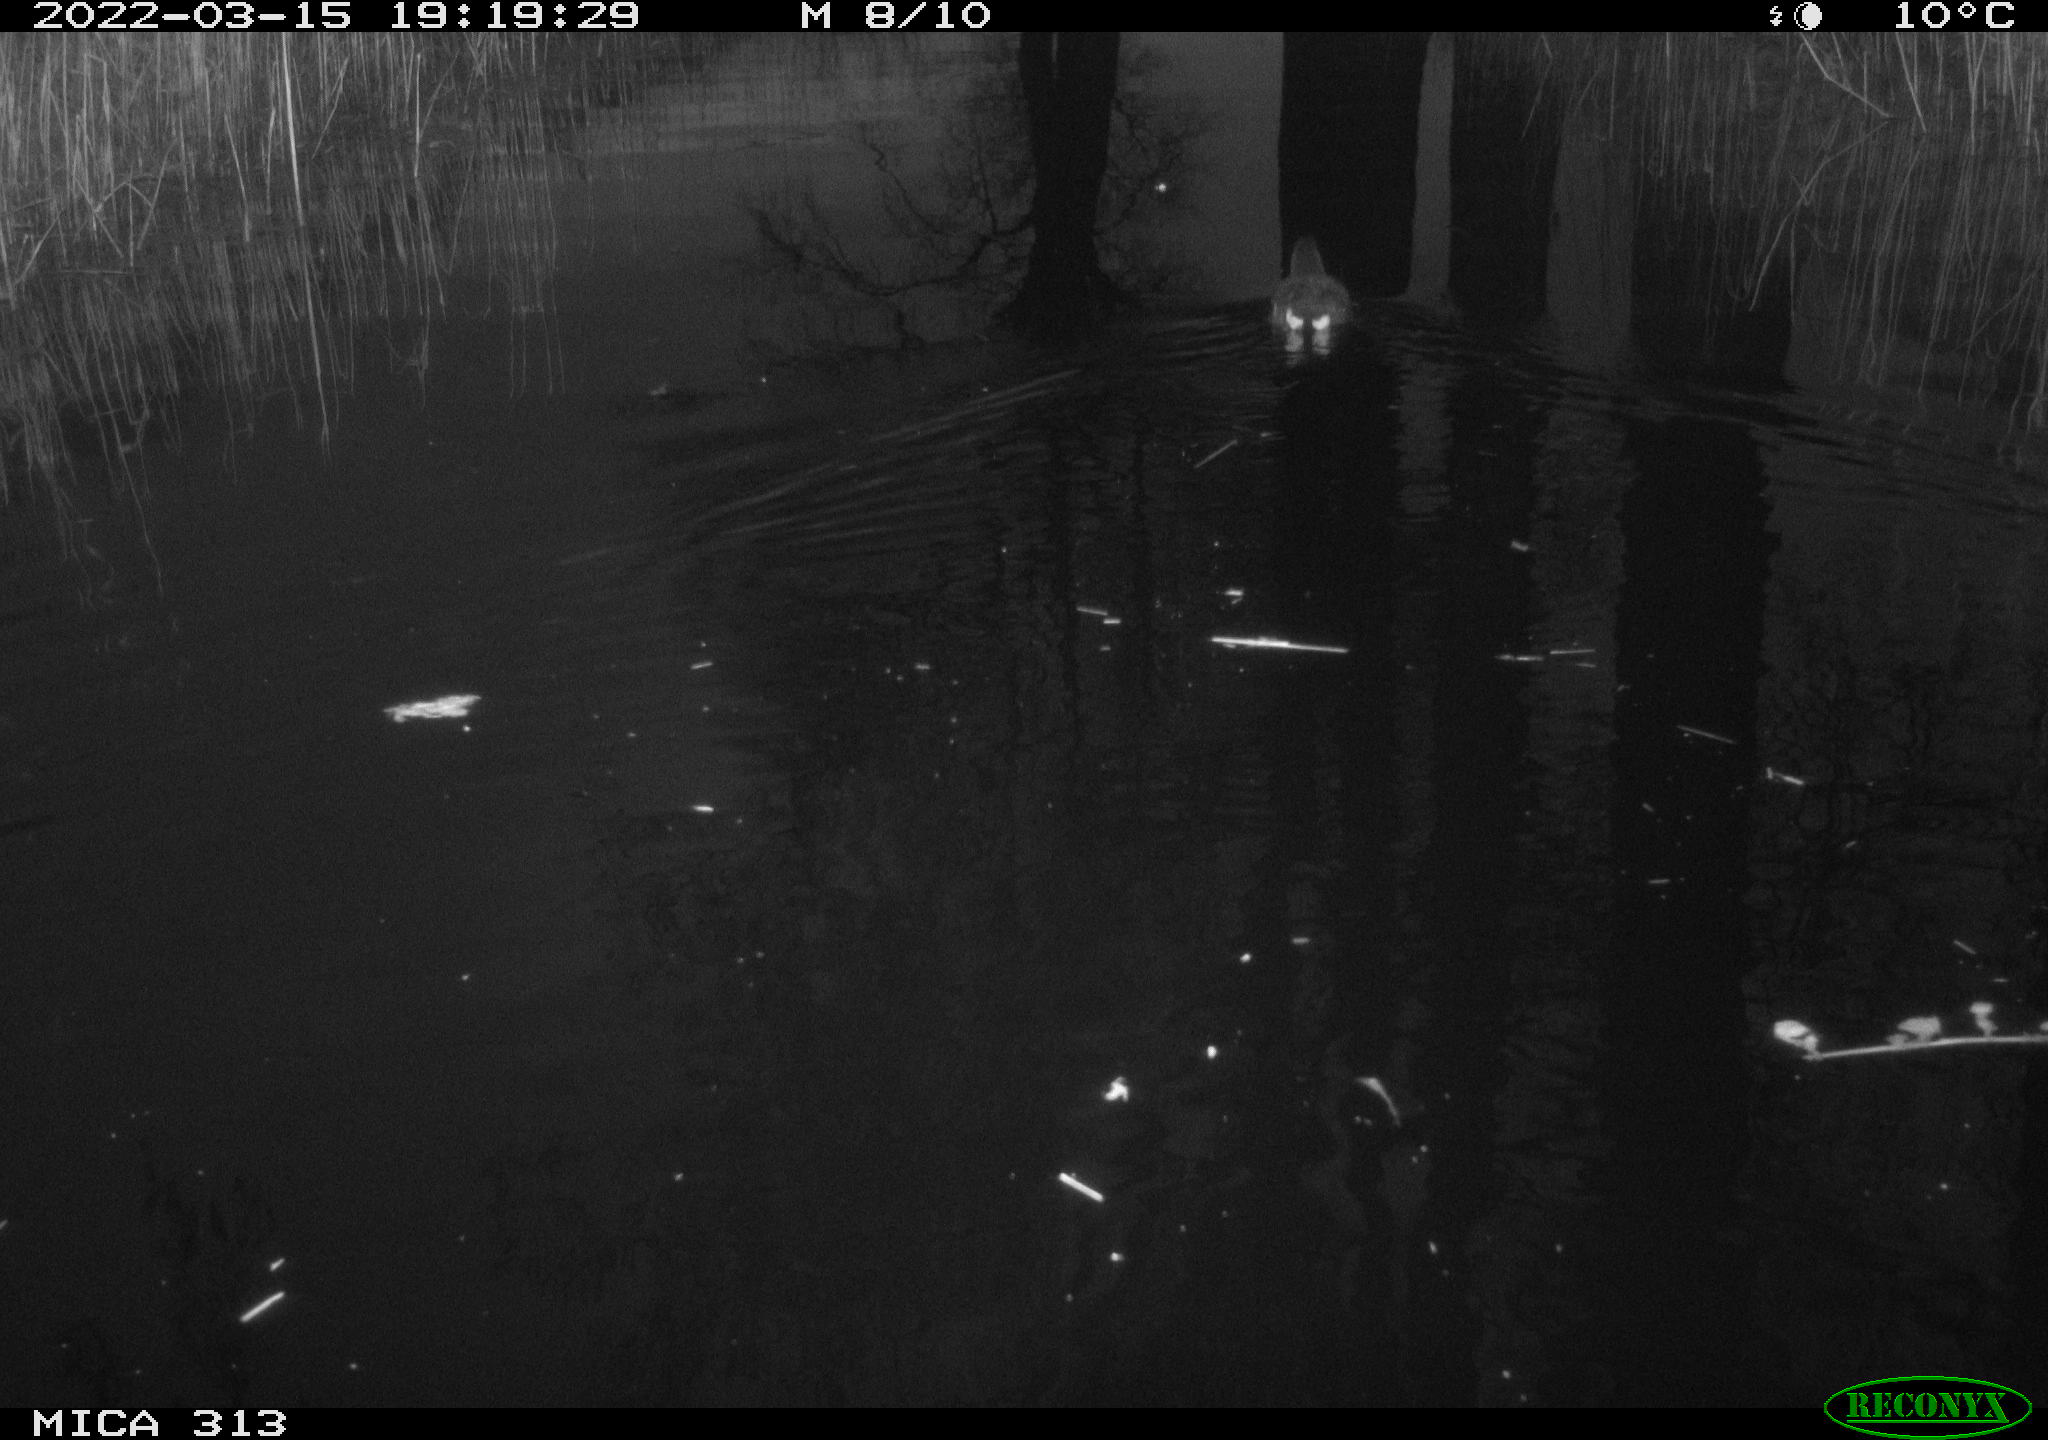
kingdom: Animalia
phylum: Chordata
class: Aves
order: Gruiformes
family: Rallidae
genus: Gallinula
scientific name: Gallinula chloropus
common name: Common moorhen
